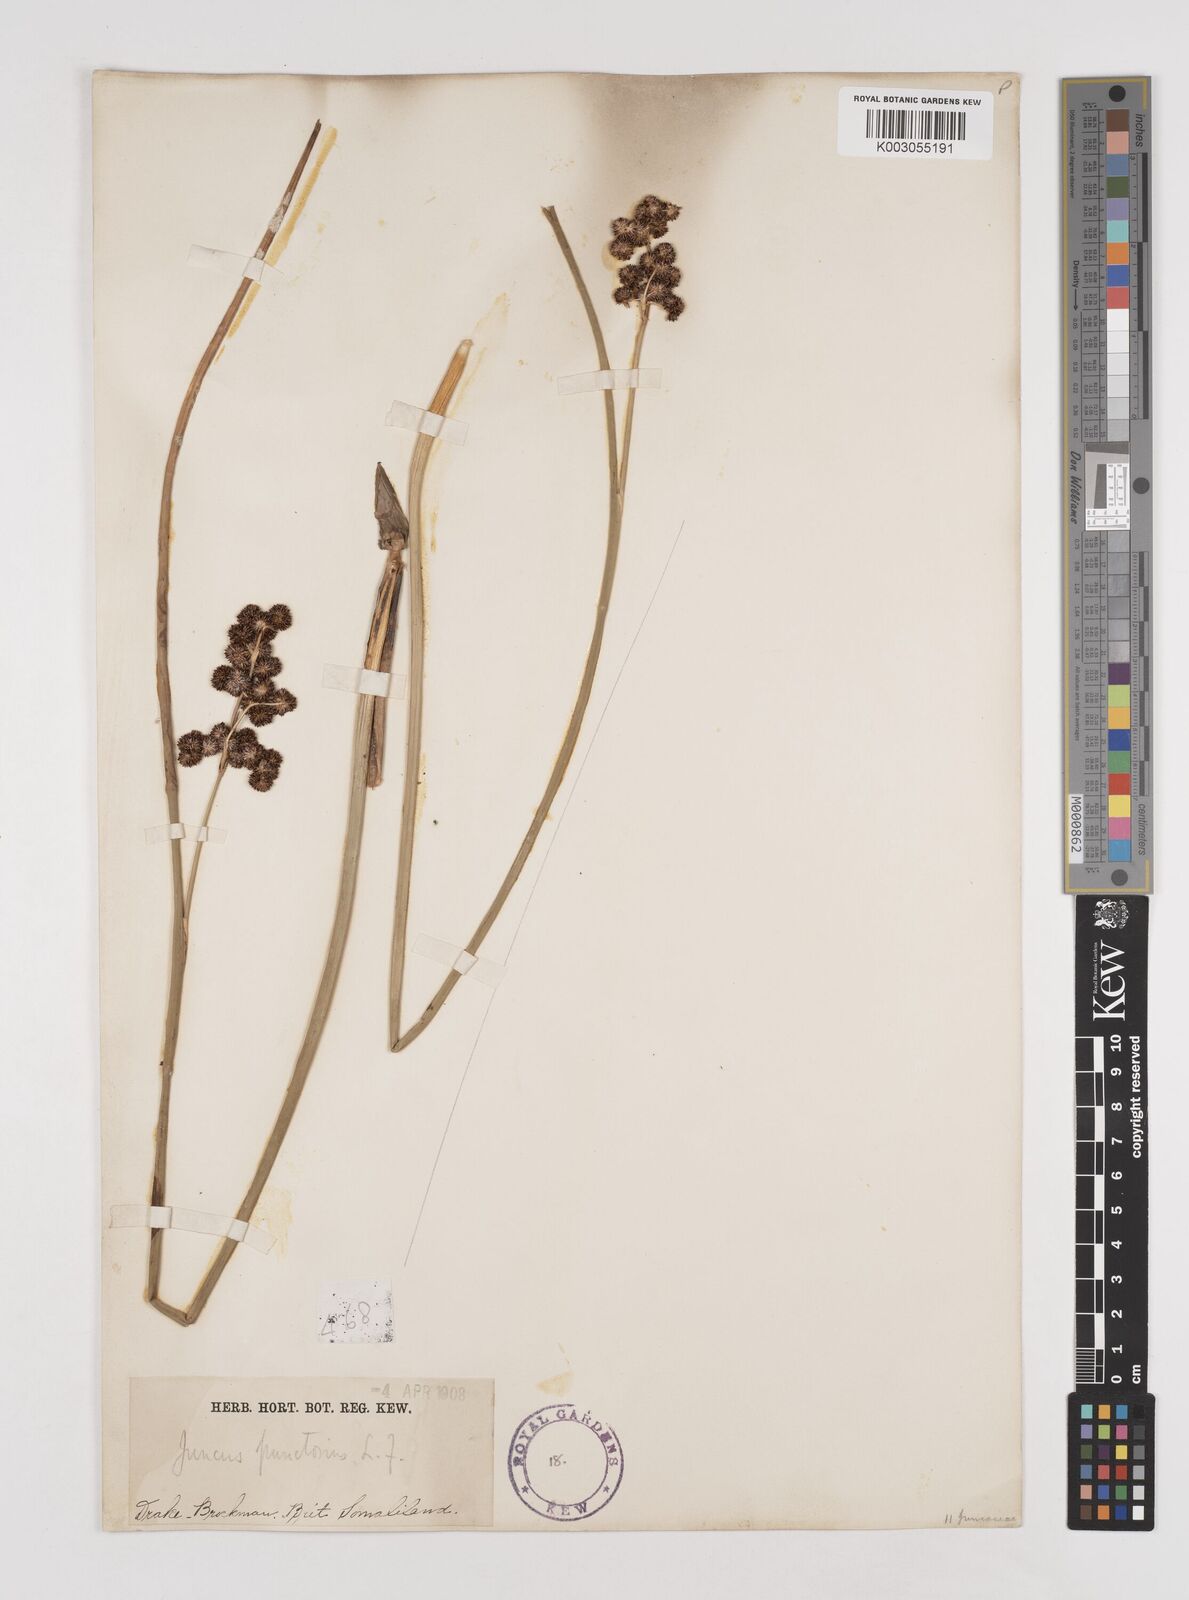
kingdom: Plantae
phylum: Tracheophyta
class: Liliopsida
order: Poales
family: Juncaceae
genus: Juncus
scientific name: Juncus punctorius
